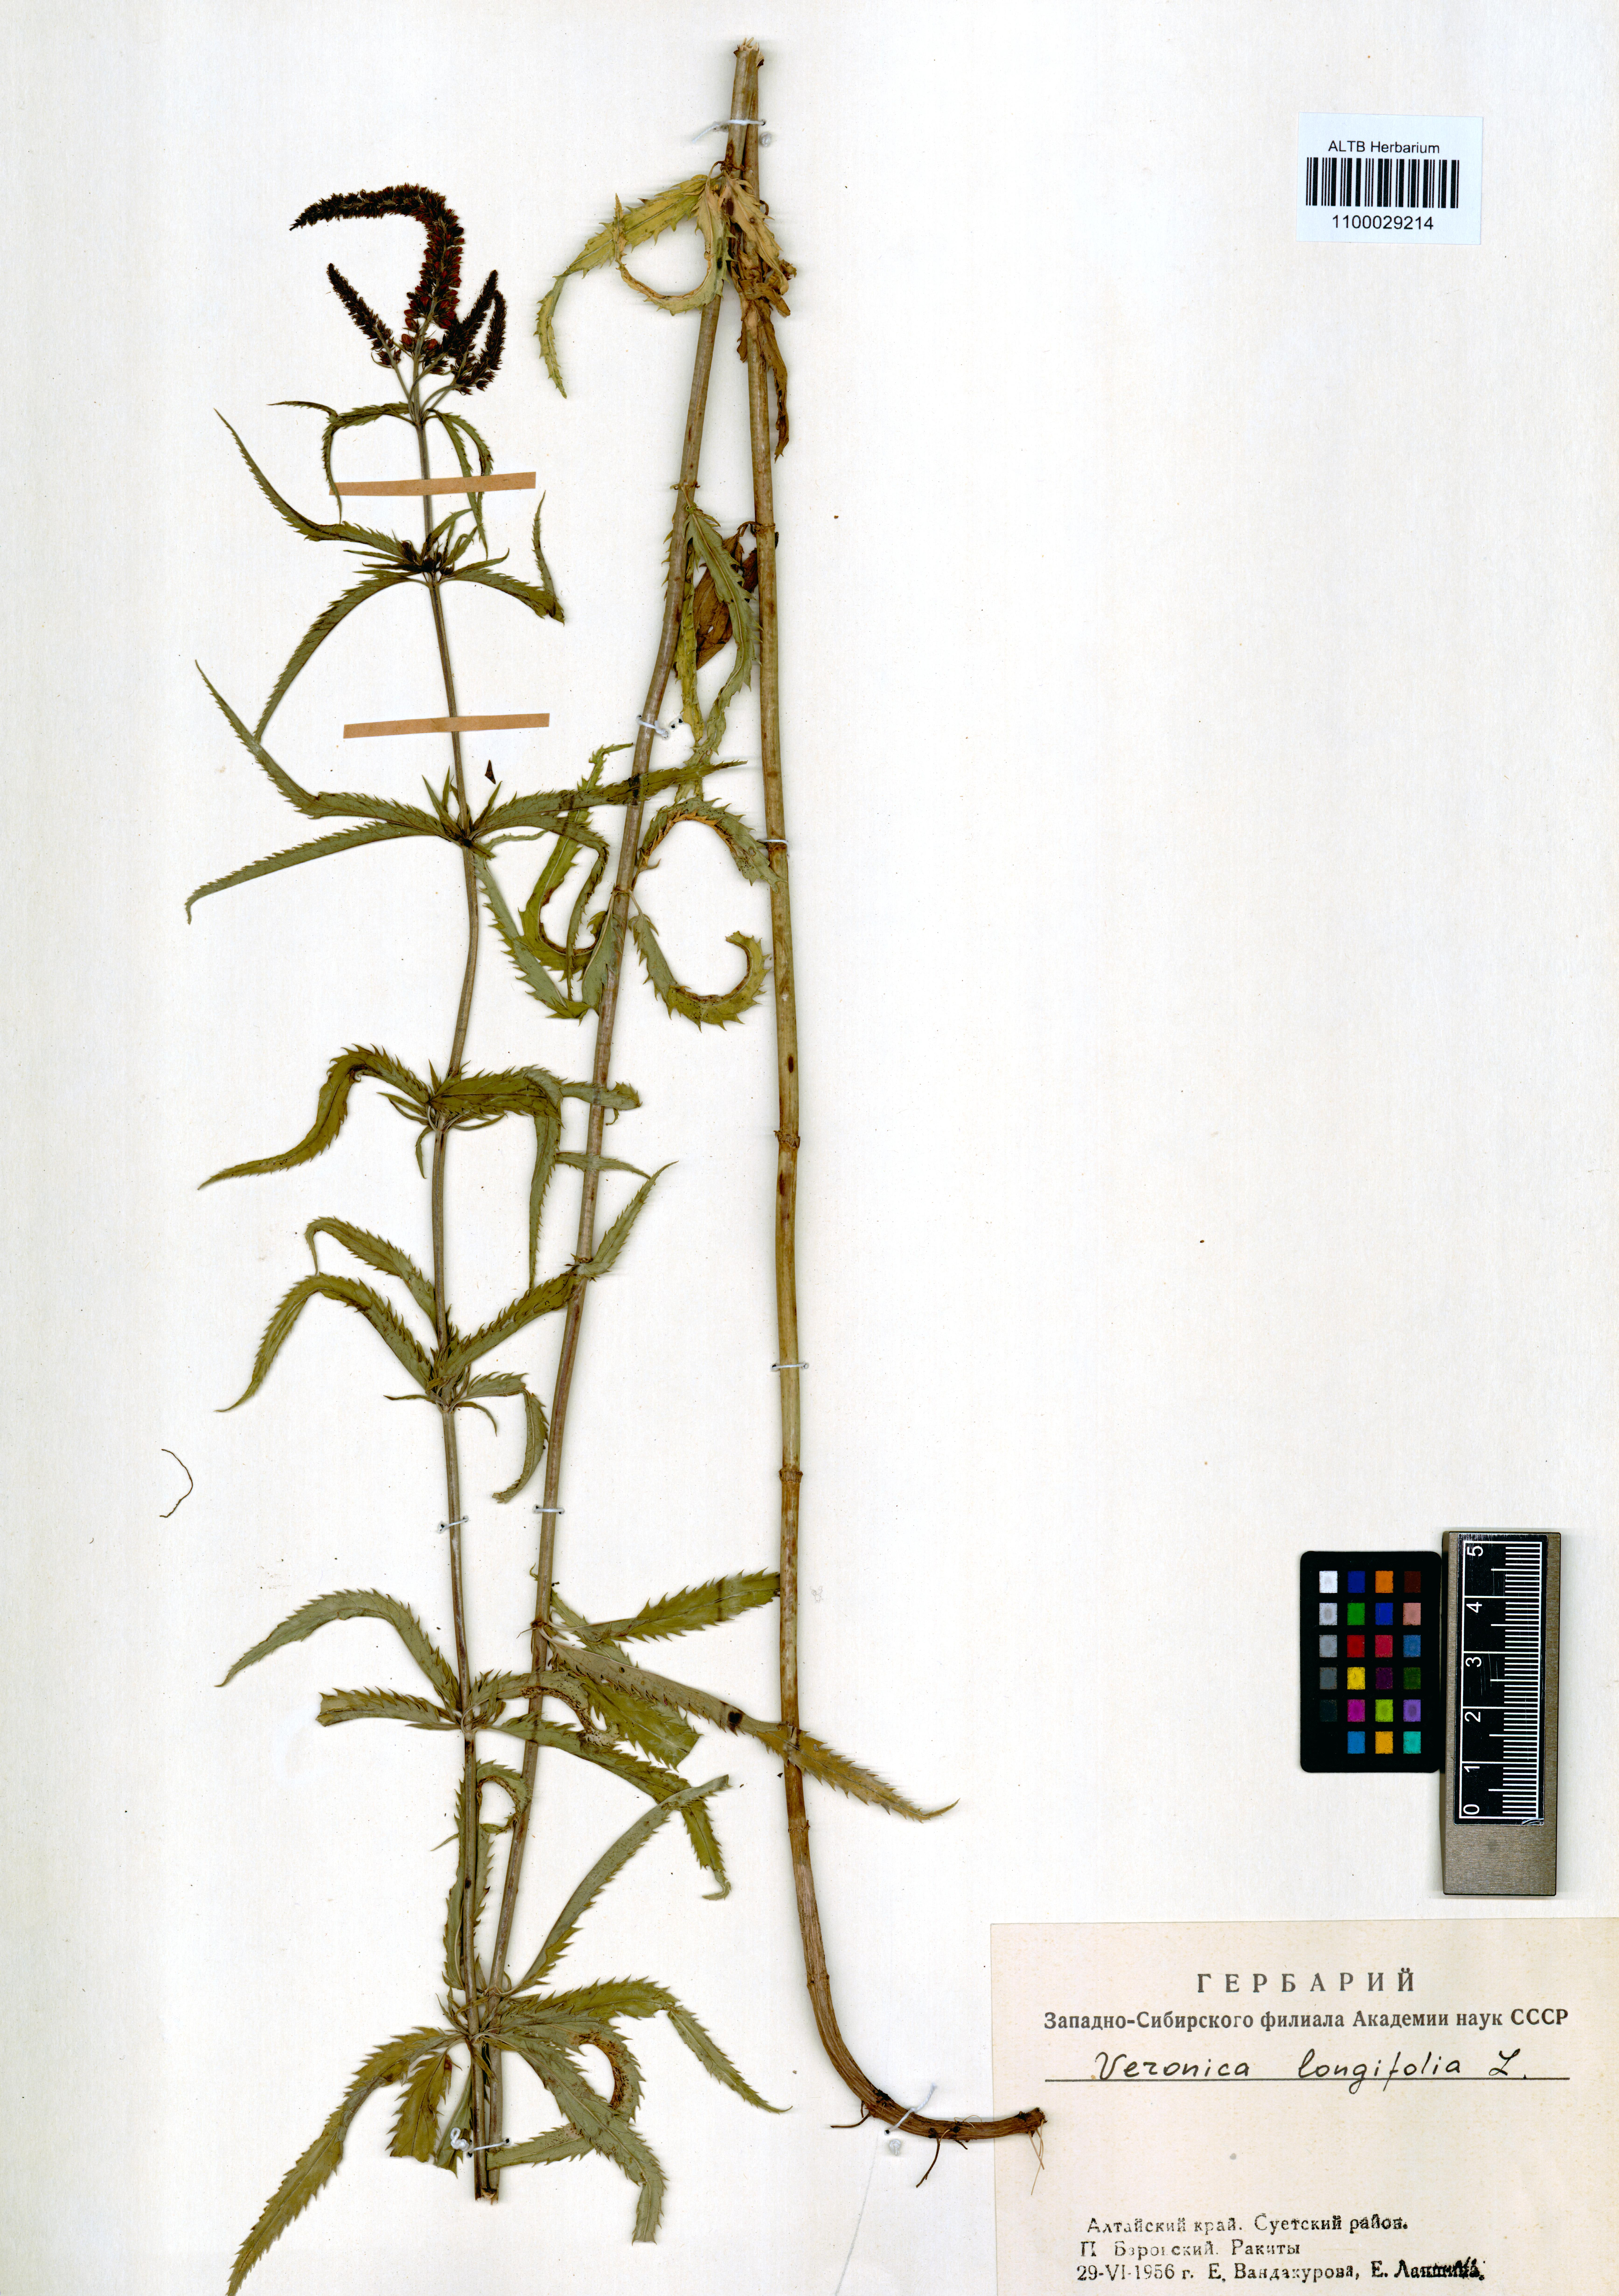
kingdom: Plantae
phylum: Tracheophyta
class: Magnoliopsida
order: Lamiales
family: Plantaginaceae
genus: Veronica
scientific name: Veronica longifolia
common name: Garden speedwell
